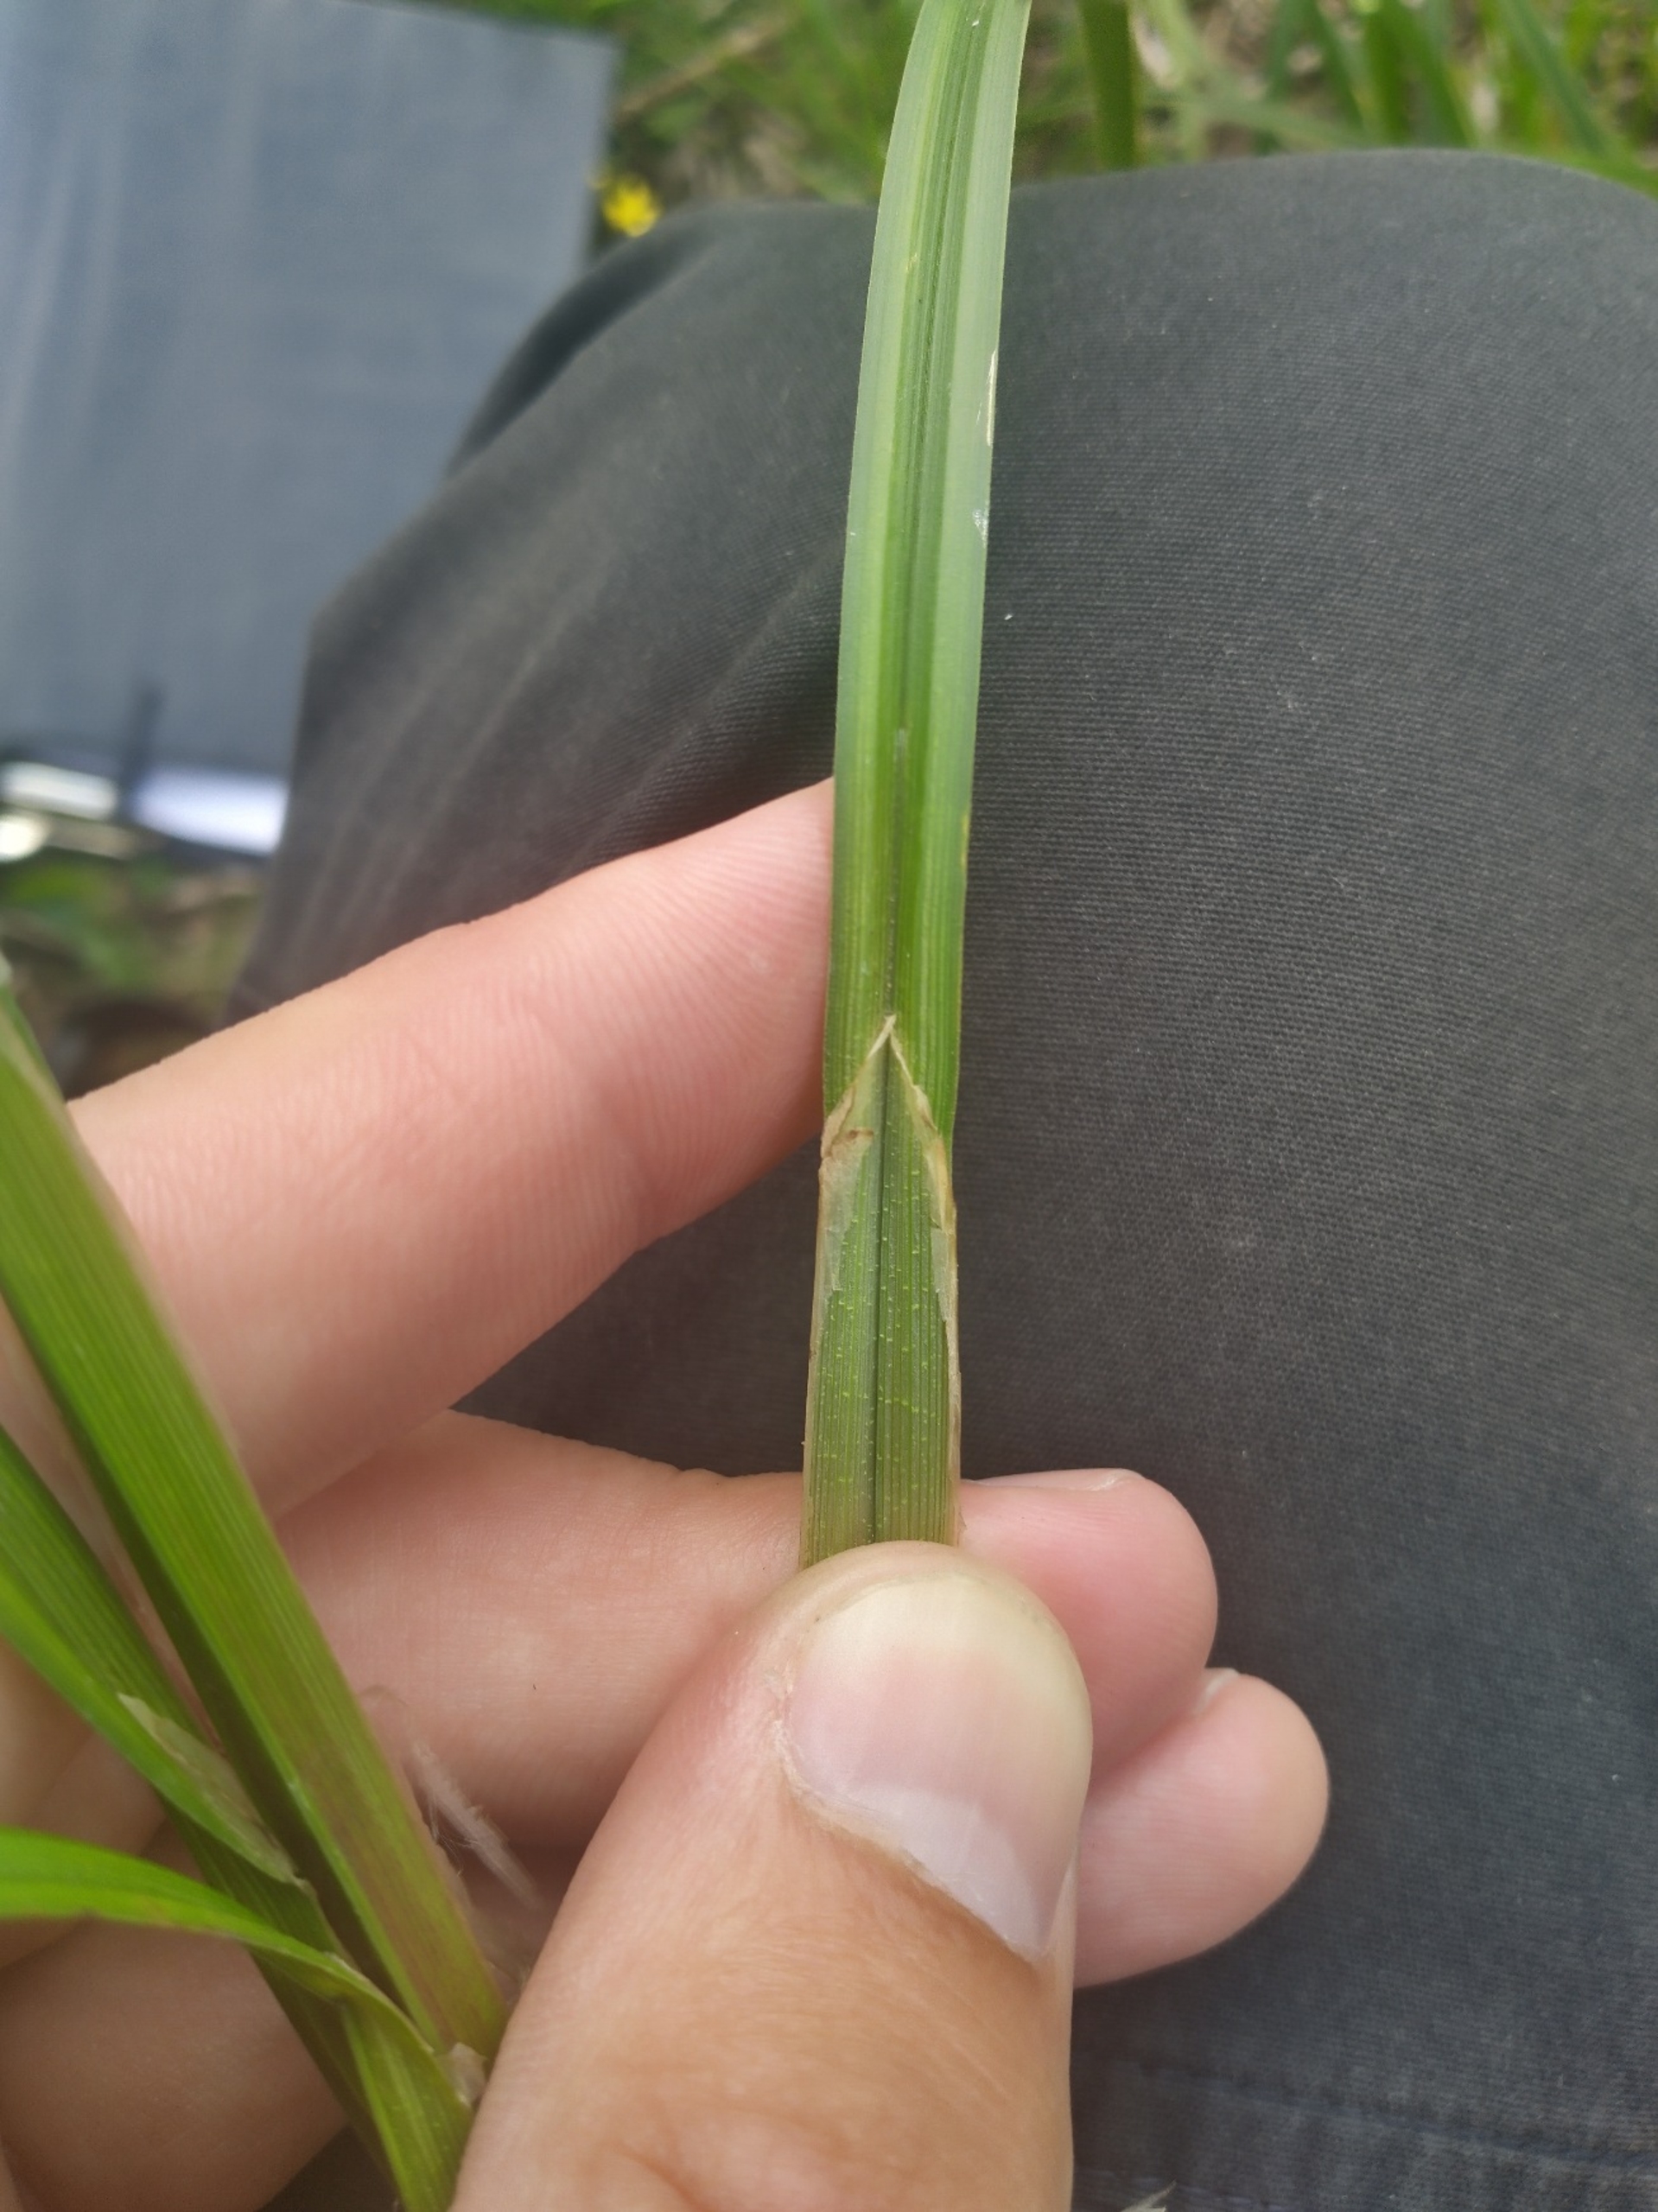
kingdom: Plantae
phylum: Tracheophyta
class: Liliopsida
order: Poales
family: Cyperaceae
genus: Carex
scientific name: Carex vesicaria
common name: Blære-star
